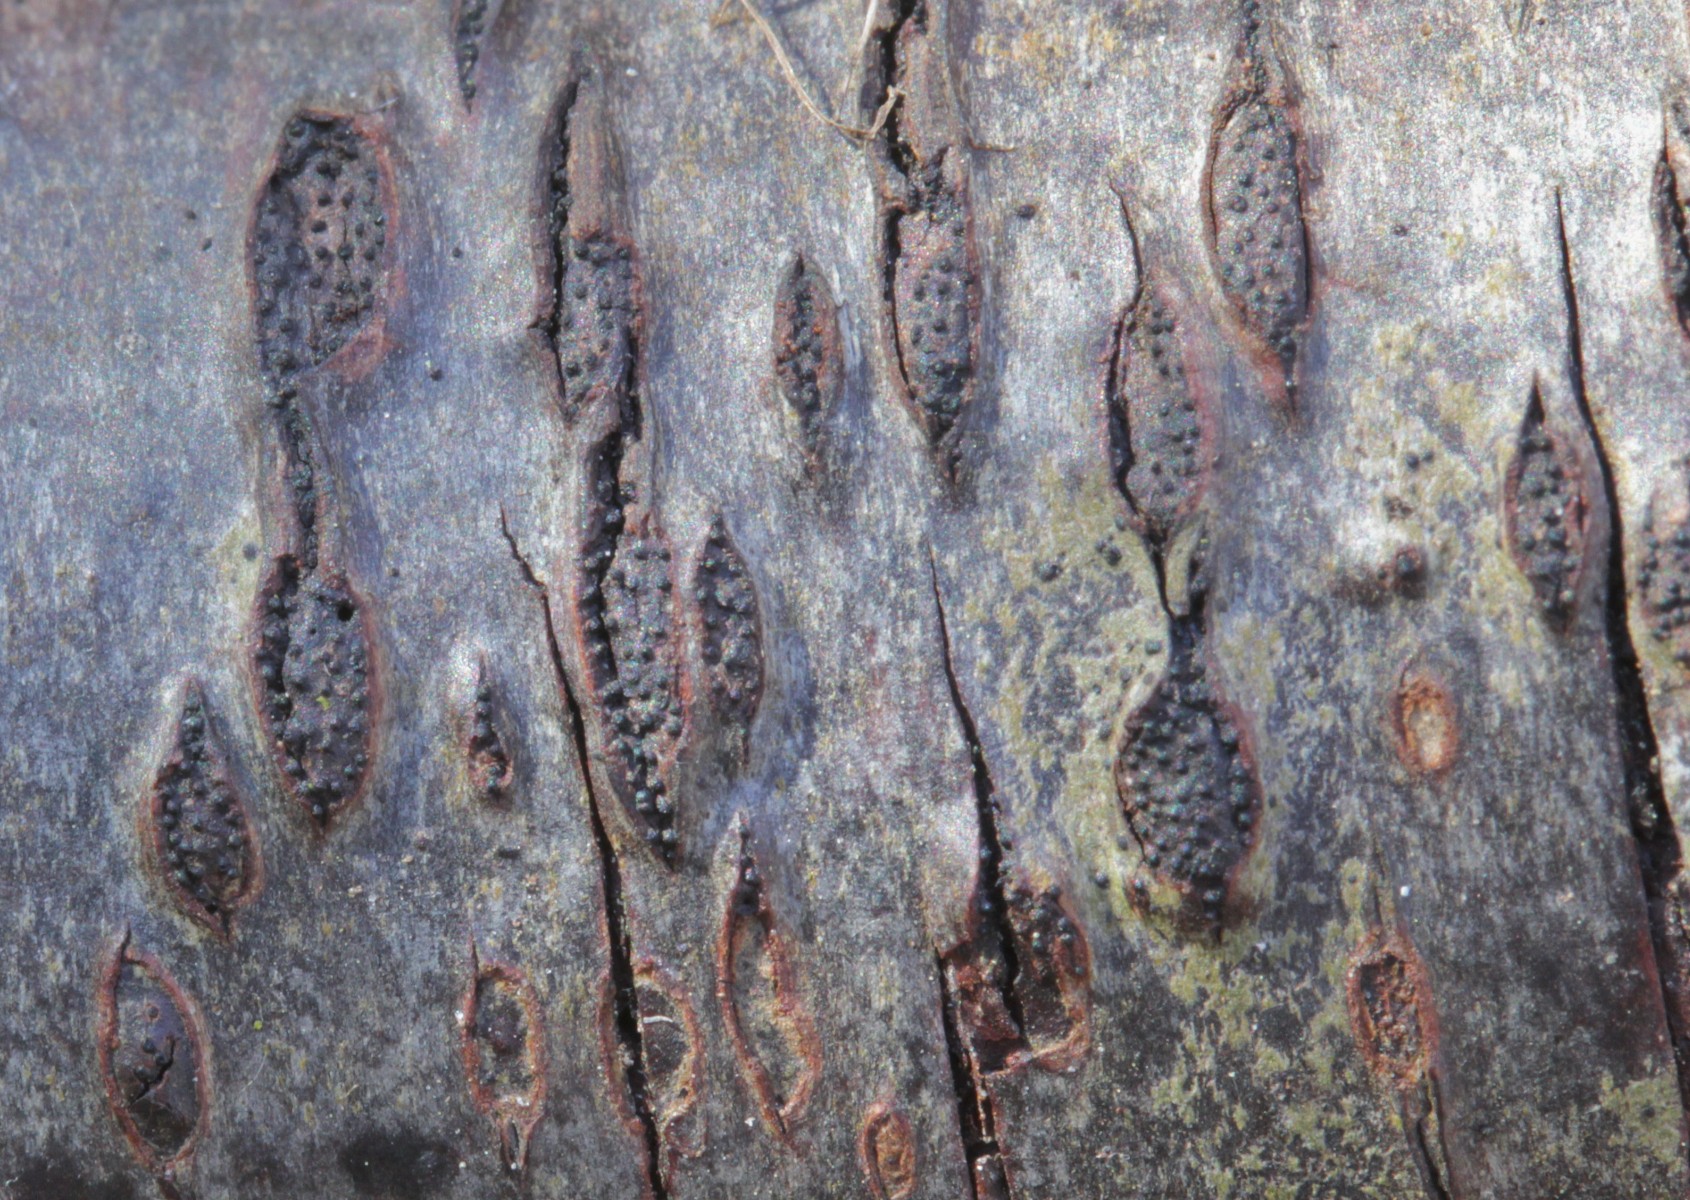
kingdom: Fungi
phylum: Ascomycota
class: Sordariomycetes
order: Xylariales
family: Diatrypaceae
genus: Eutypa
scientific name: Eutypa sparsa
